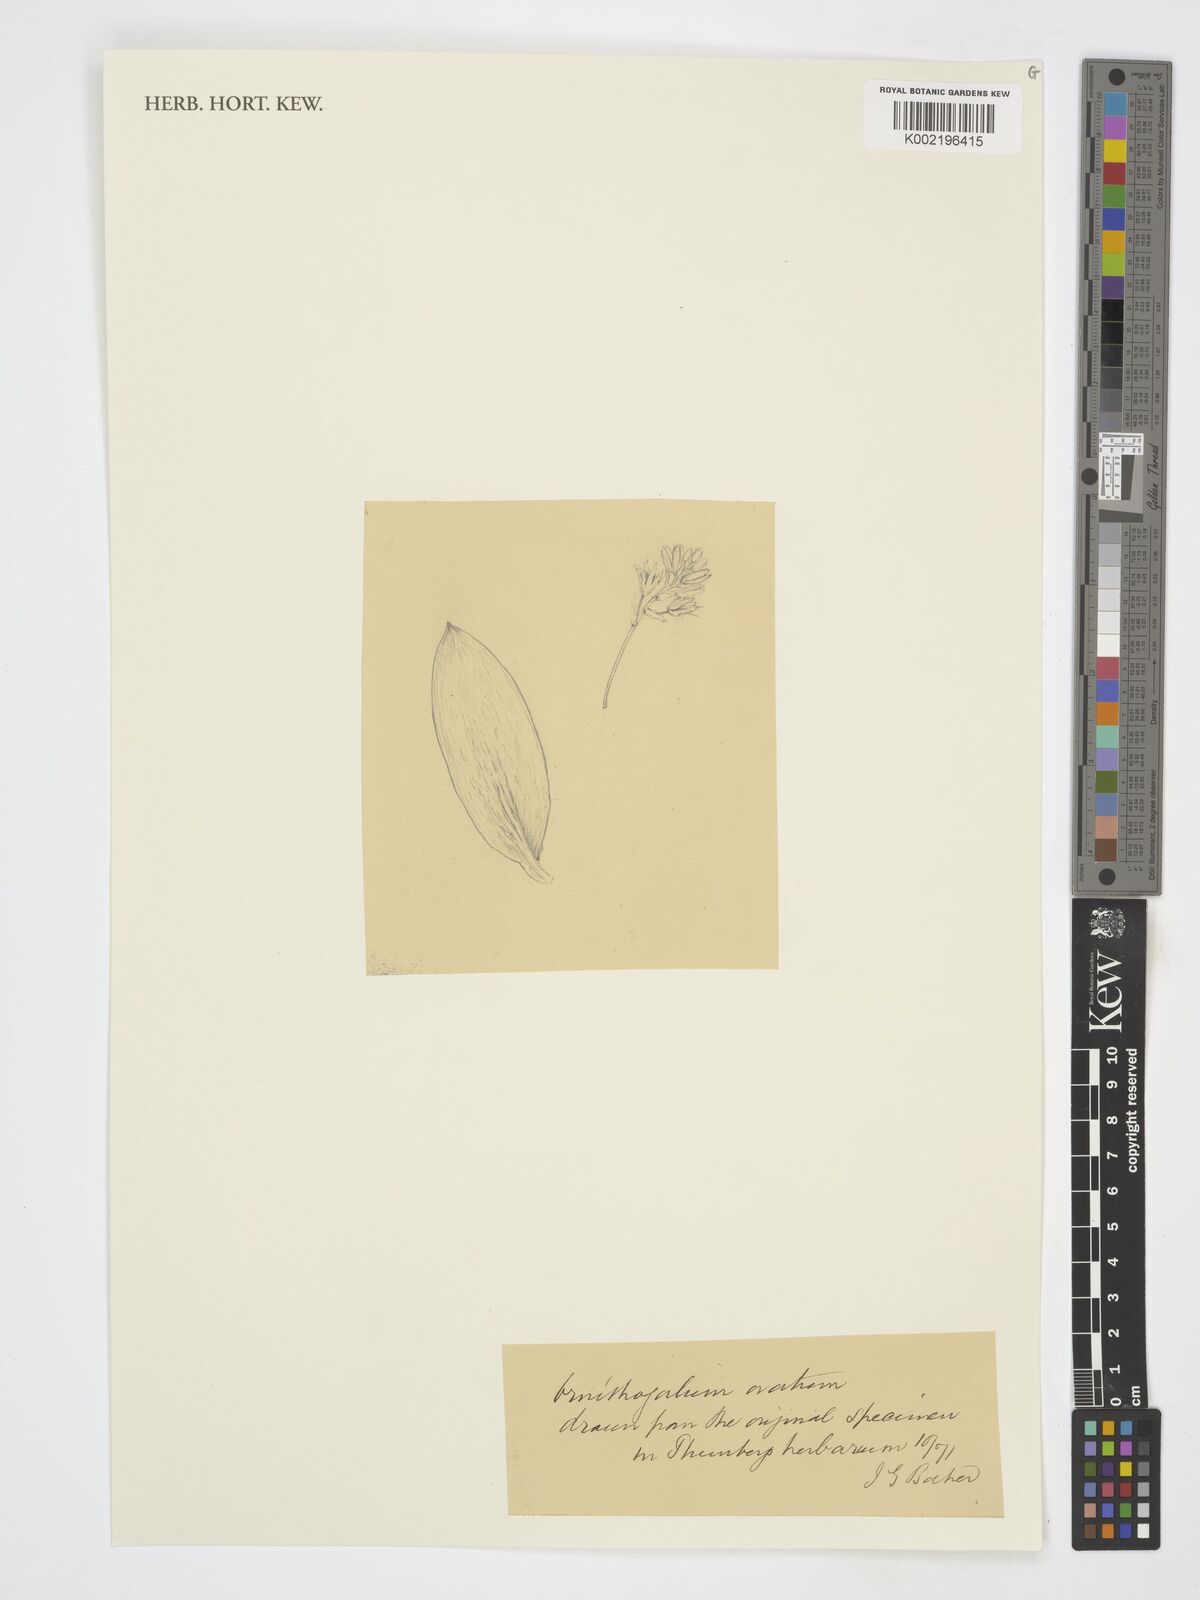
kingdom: Plantae
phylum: Tracheophyta
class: Liliopsida
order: Asparagales
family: Asparagaceae
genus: Ornithogalum
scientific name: Ornithogalum
